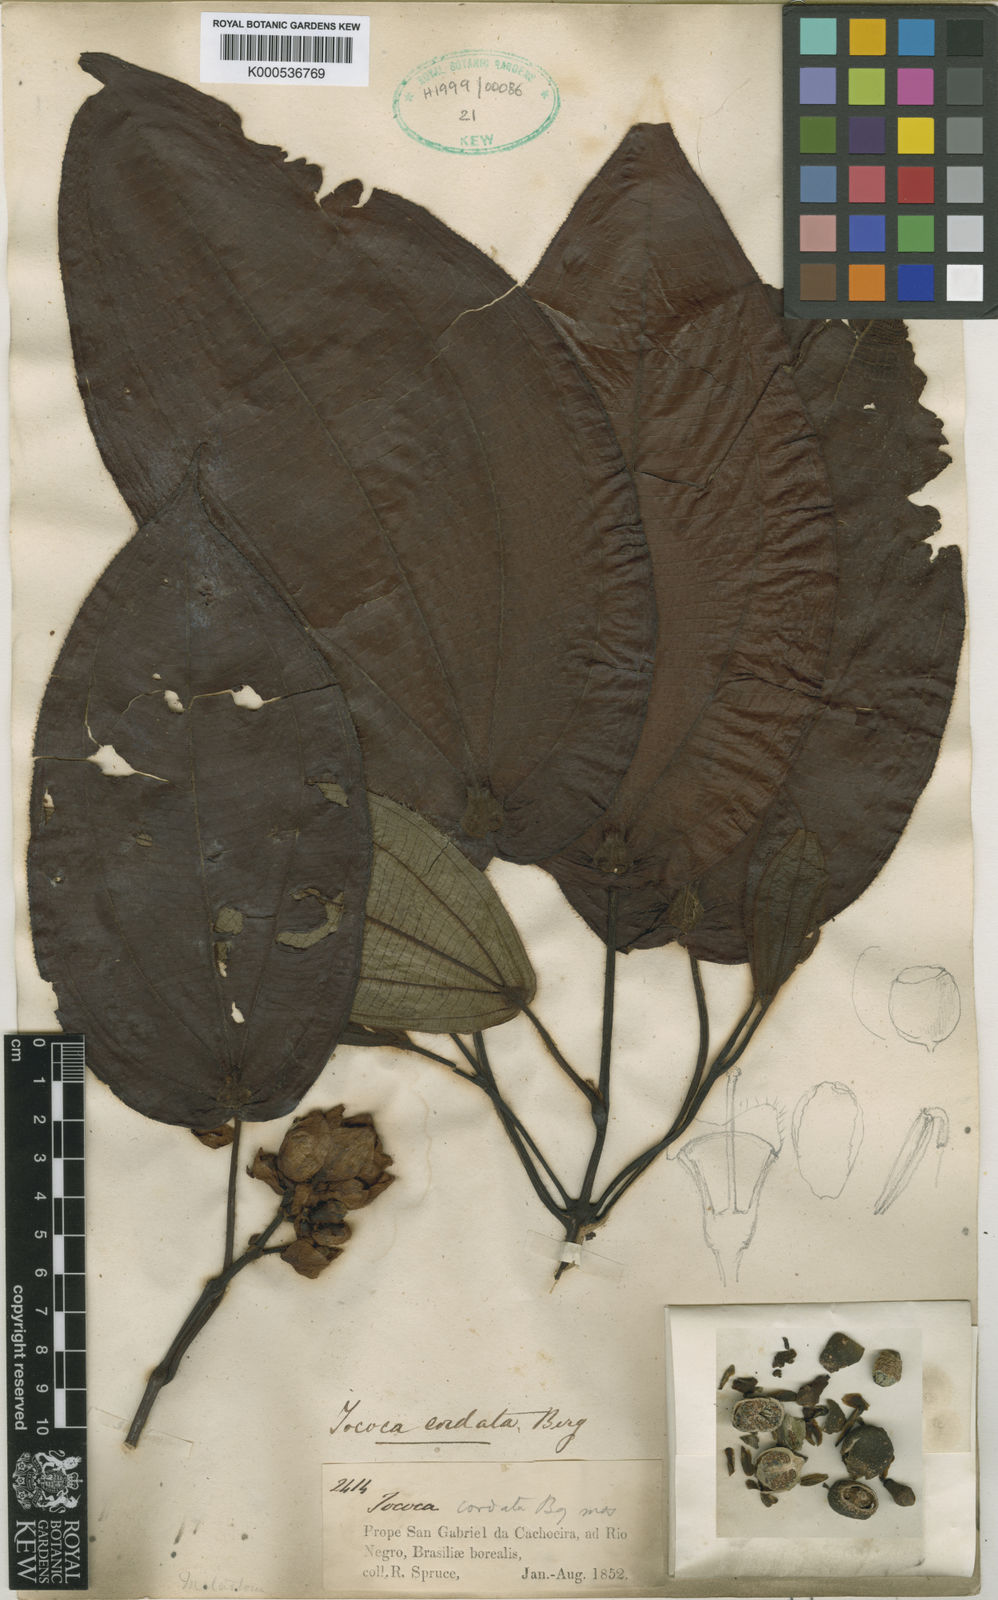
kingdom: Plantae
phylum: Tracheophyta
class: Magnoliopsida
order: Myrtales
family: Melastomataceae
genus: Miconia
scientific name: Miconia tococordata
